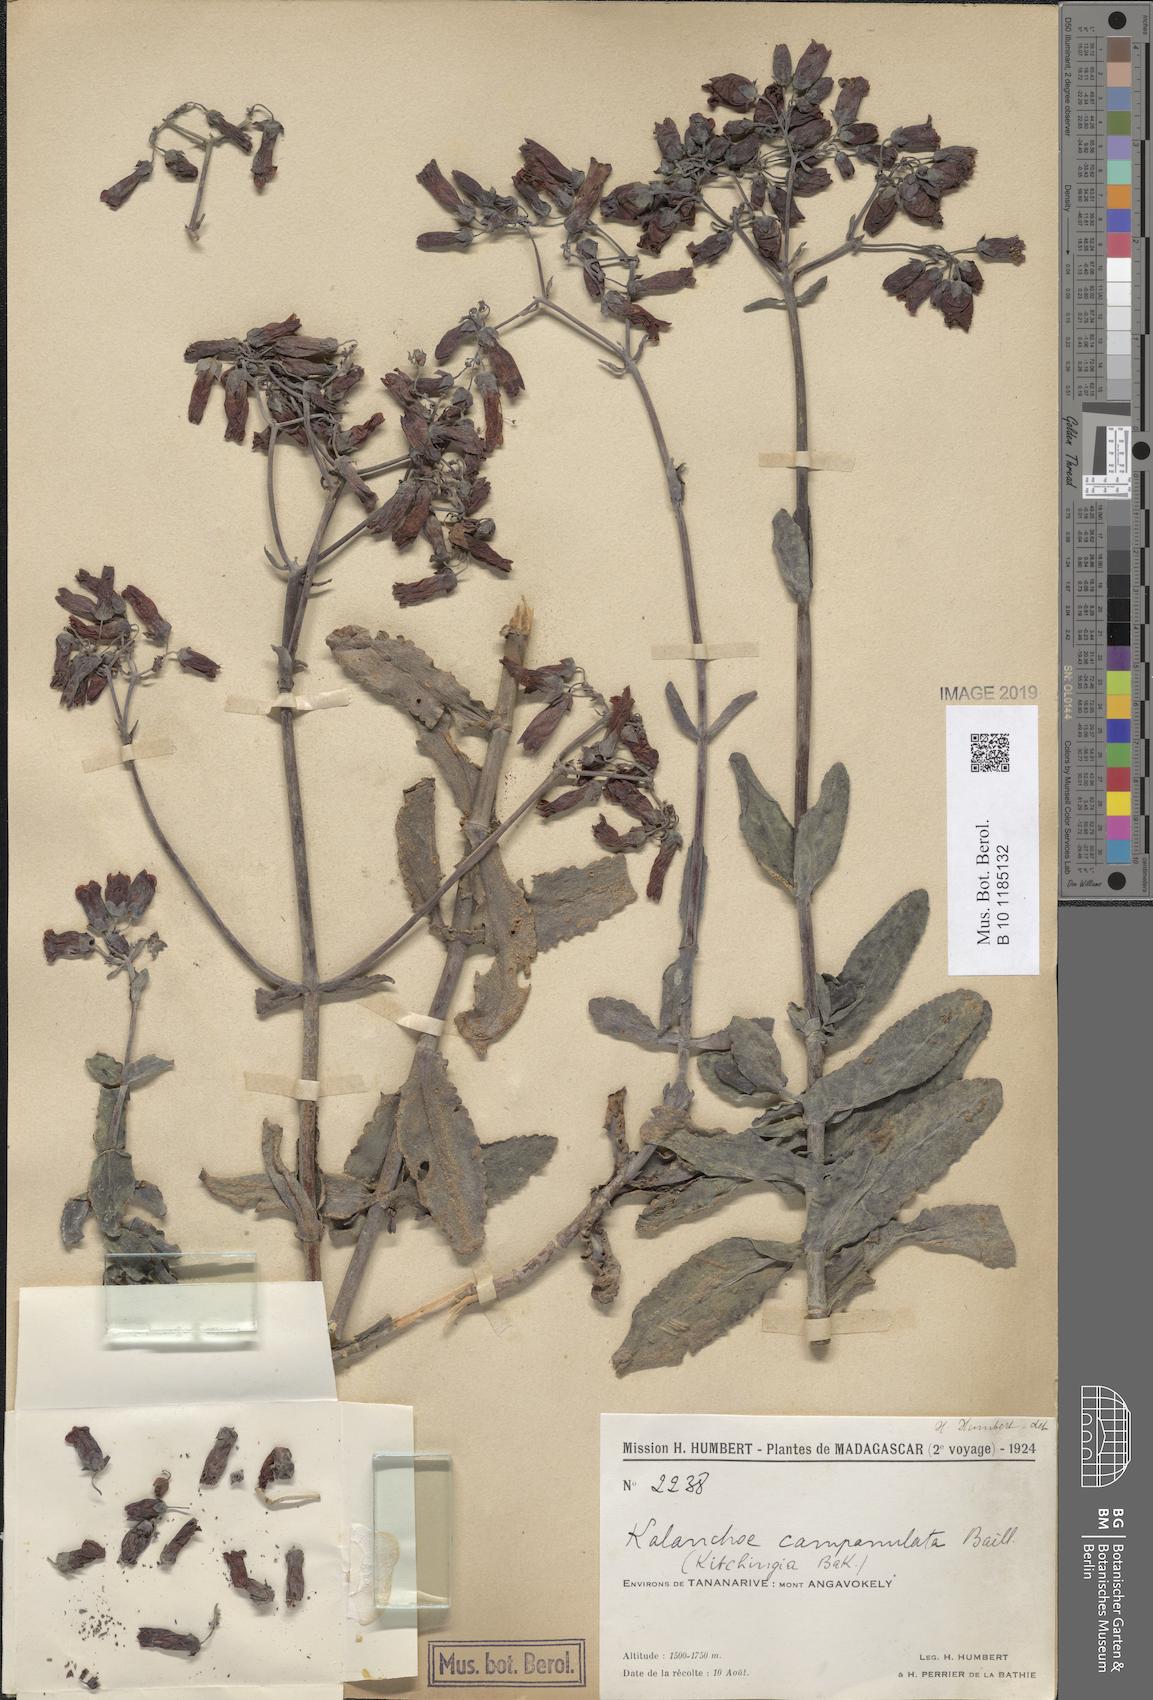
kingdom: Plantae
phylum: Tracheophyta
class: Magnoliopsida
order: Saxifragales
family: Crassulaceae
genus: Kalanchoe
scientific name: Kalanchoe campanulata
